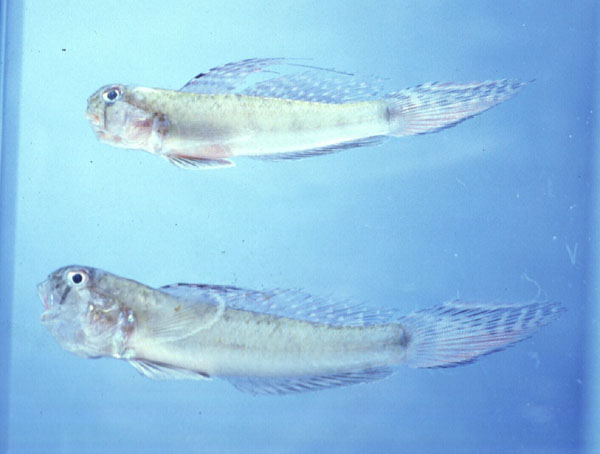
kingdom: Animalia
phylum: Chordata
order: Perciformes
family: Gobiidae
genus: Oligolepis
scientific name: Oligolepis acutipennis
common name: Sharptail goby
